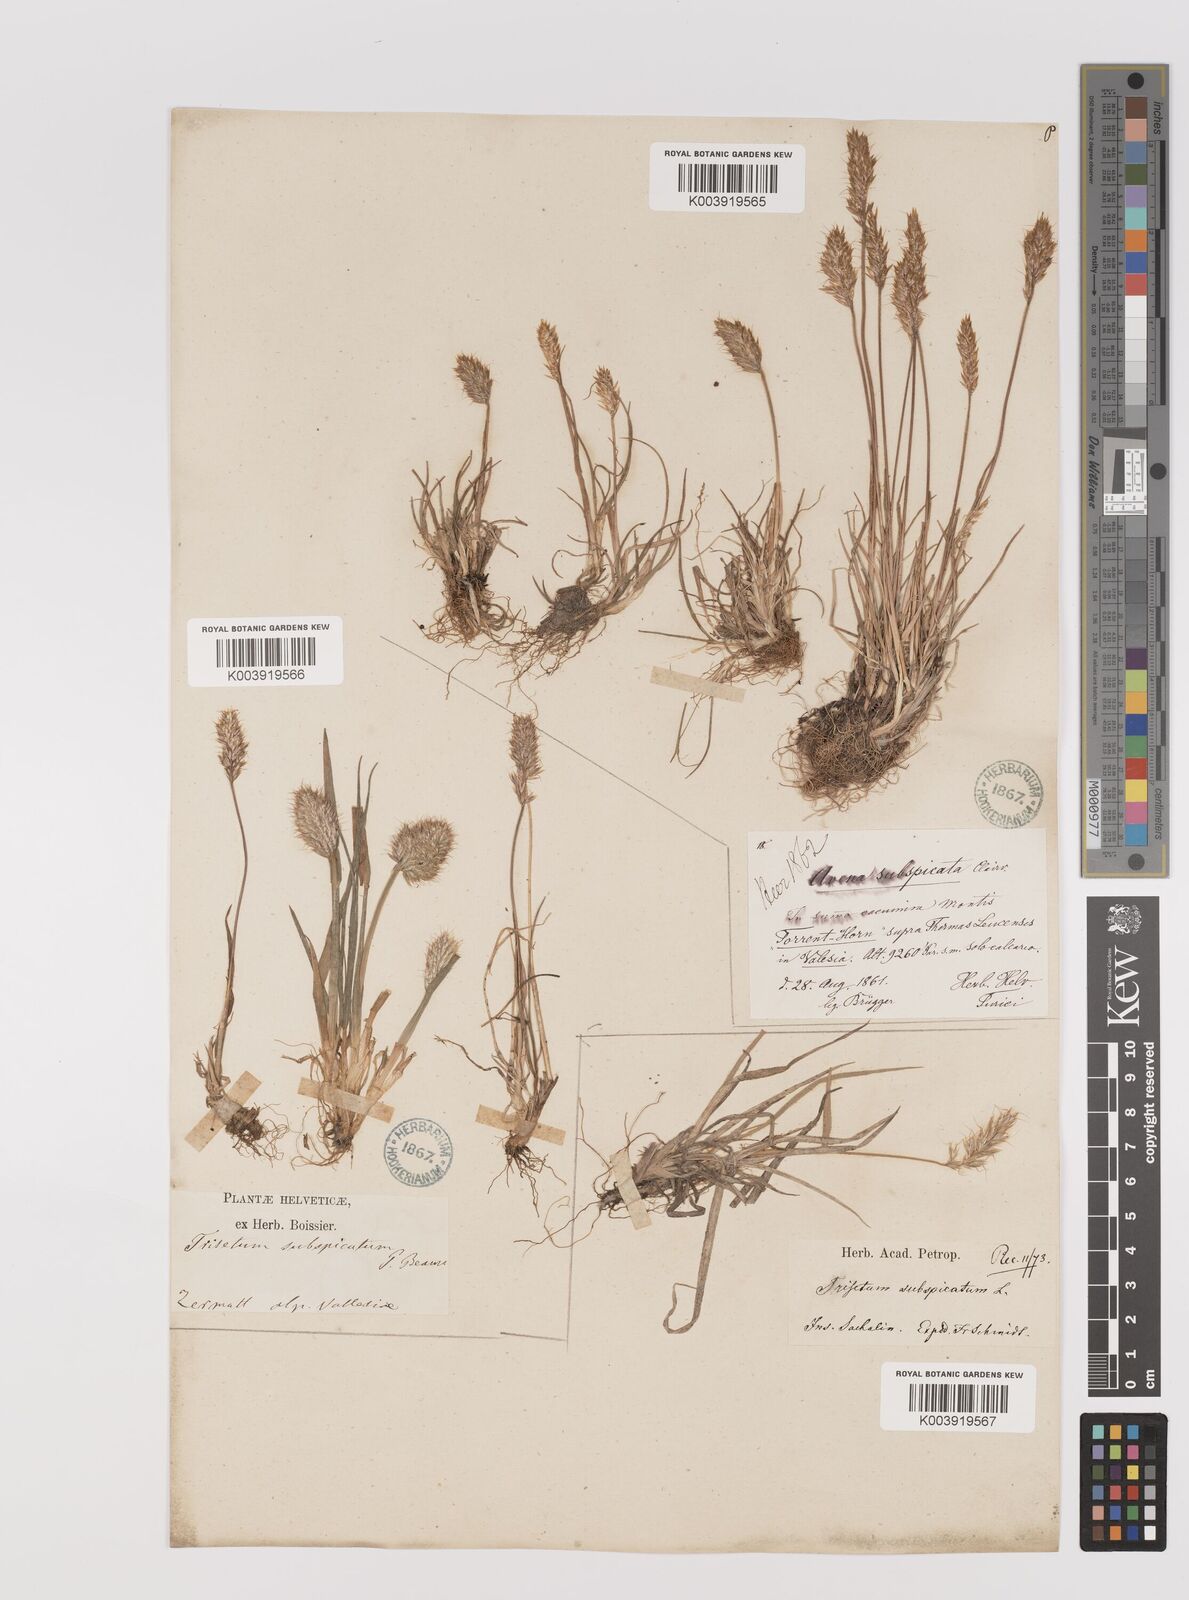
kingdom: Plantae
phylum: Tracheophyta
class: Liliopsida
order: Poales
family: Poaceae
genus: Koeleria
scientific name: Koeleria spicata
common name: Mountain trisetum
